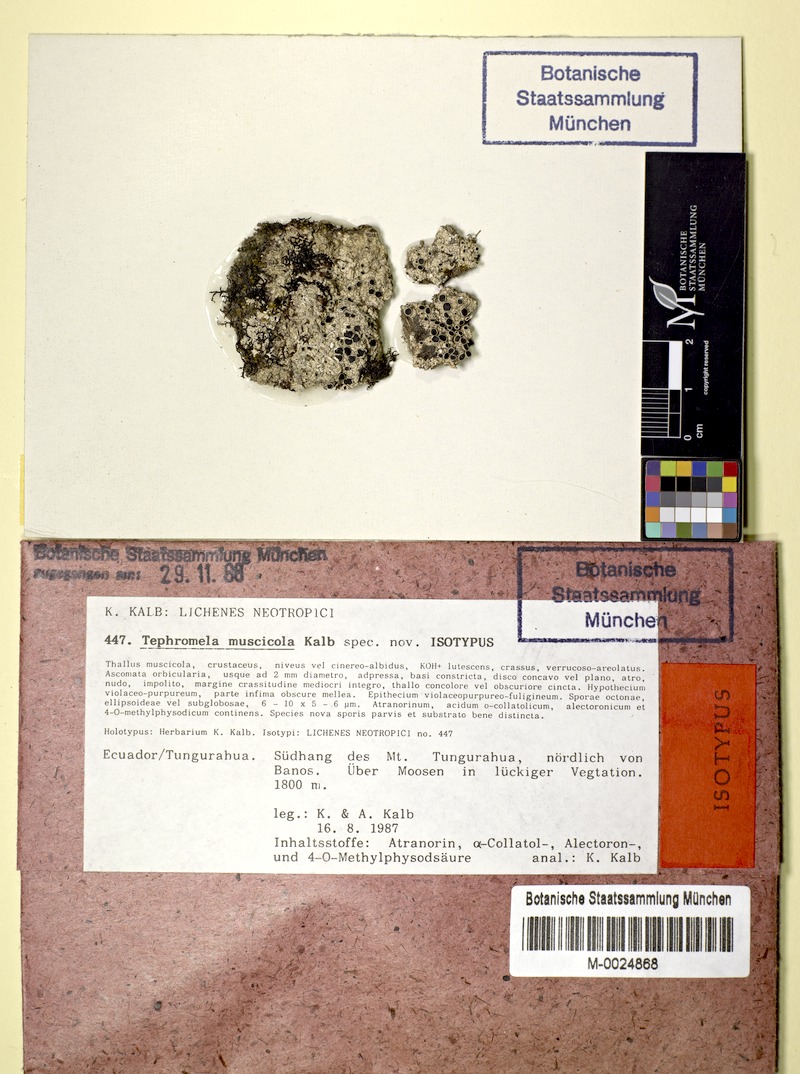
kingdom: Fungi
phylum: Ascomycota
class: Lecanoromycetes
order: Lecanorales
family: Tephromelataceae
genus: Tephromela
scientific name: Tephromela muscicola
